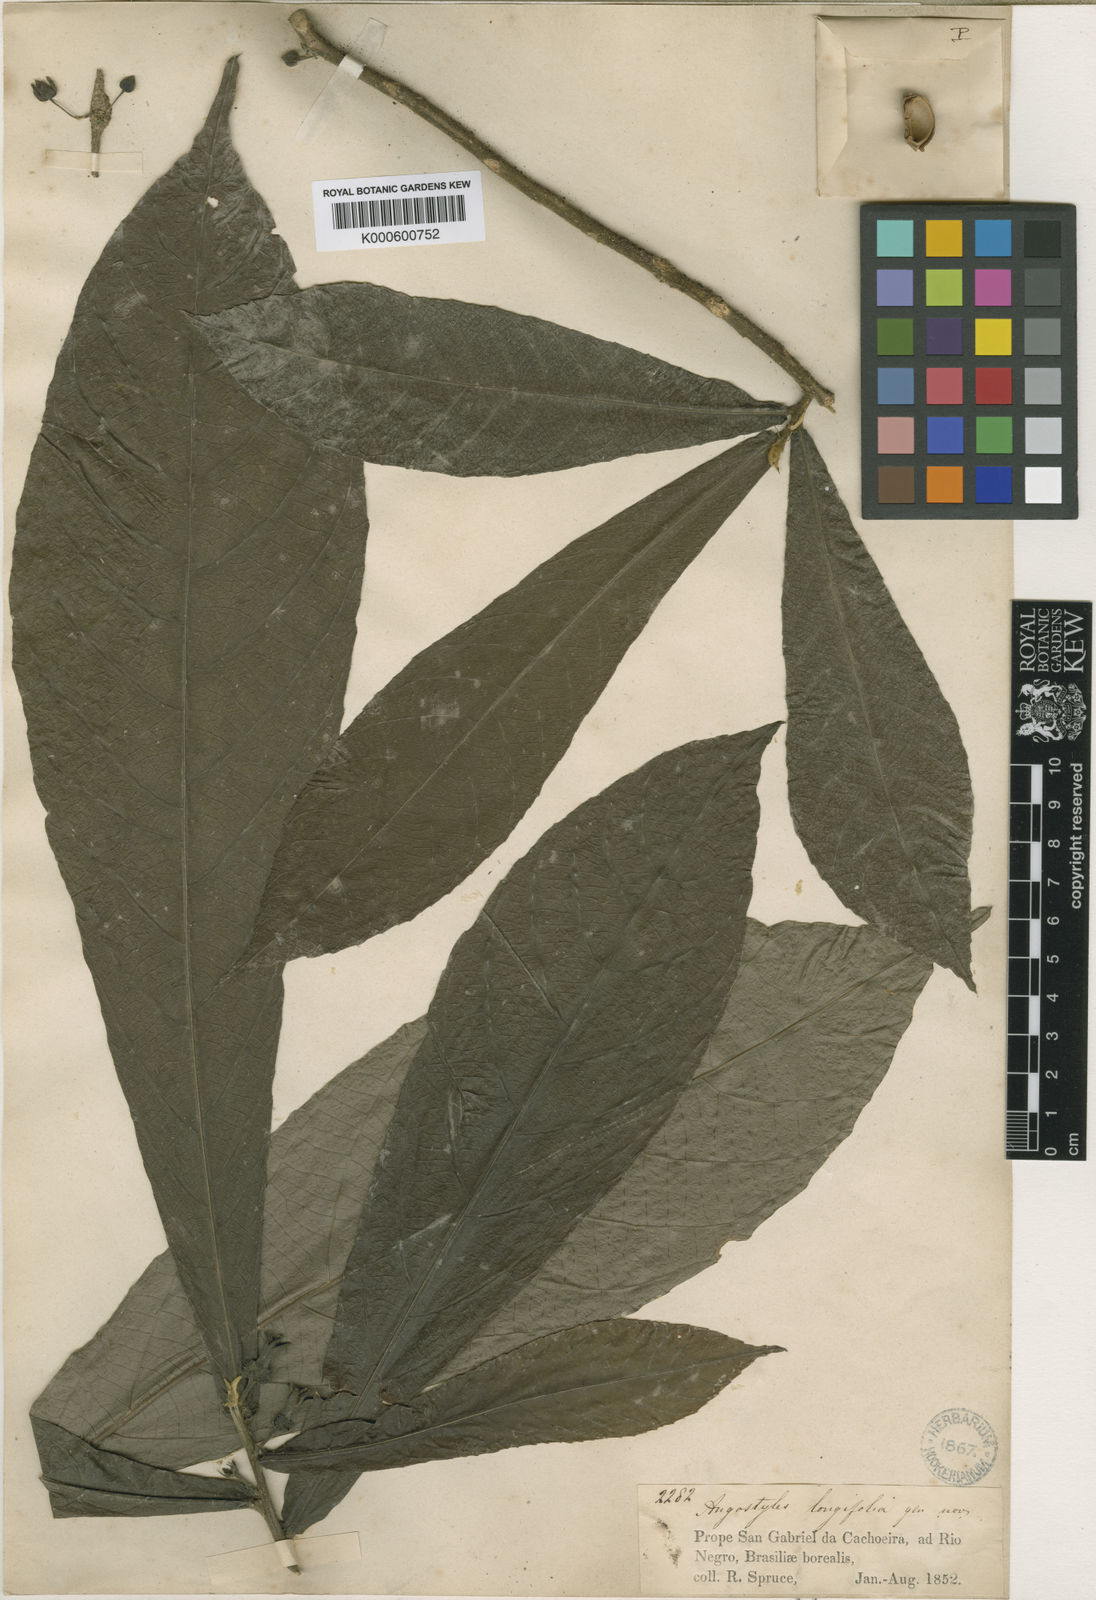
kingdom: Plantae
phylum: Tracheophyta
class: Magnoliopsida
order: Malpighiales
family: Euphorbiaceae
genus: Angostylis
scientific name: Angostylis longifolia
